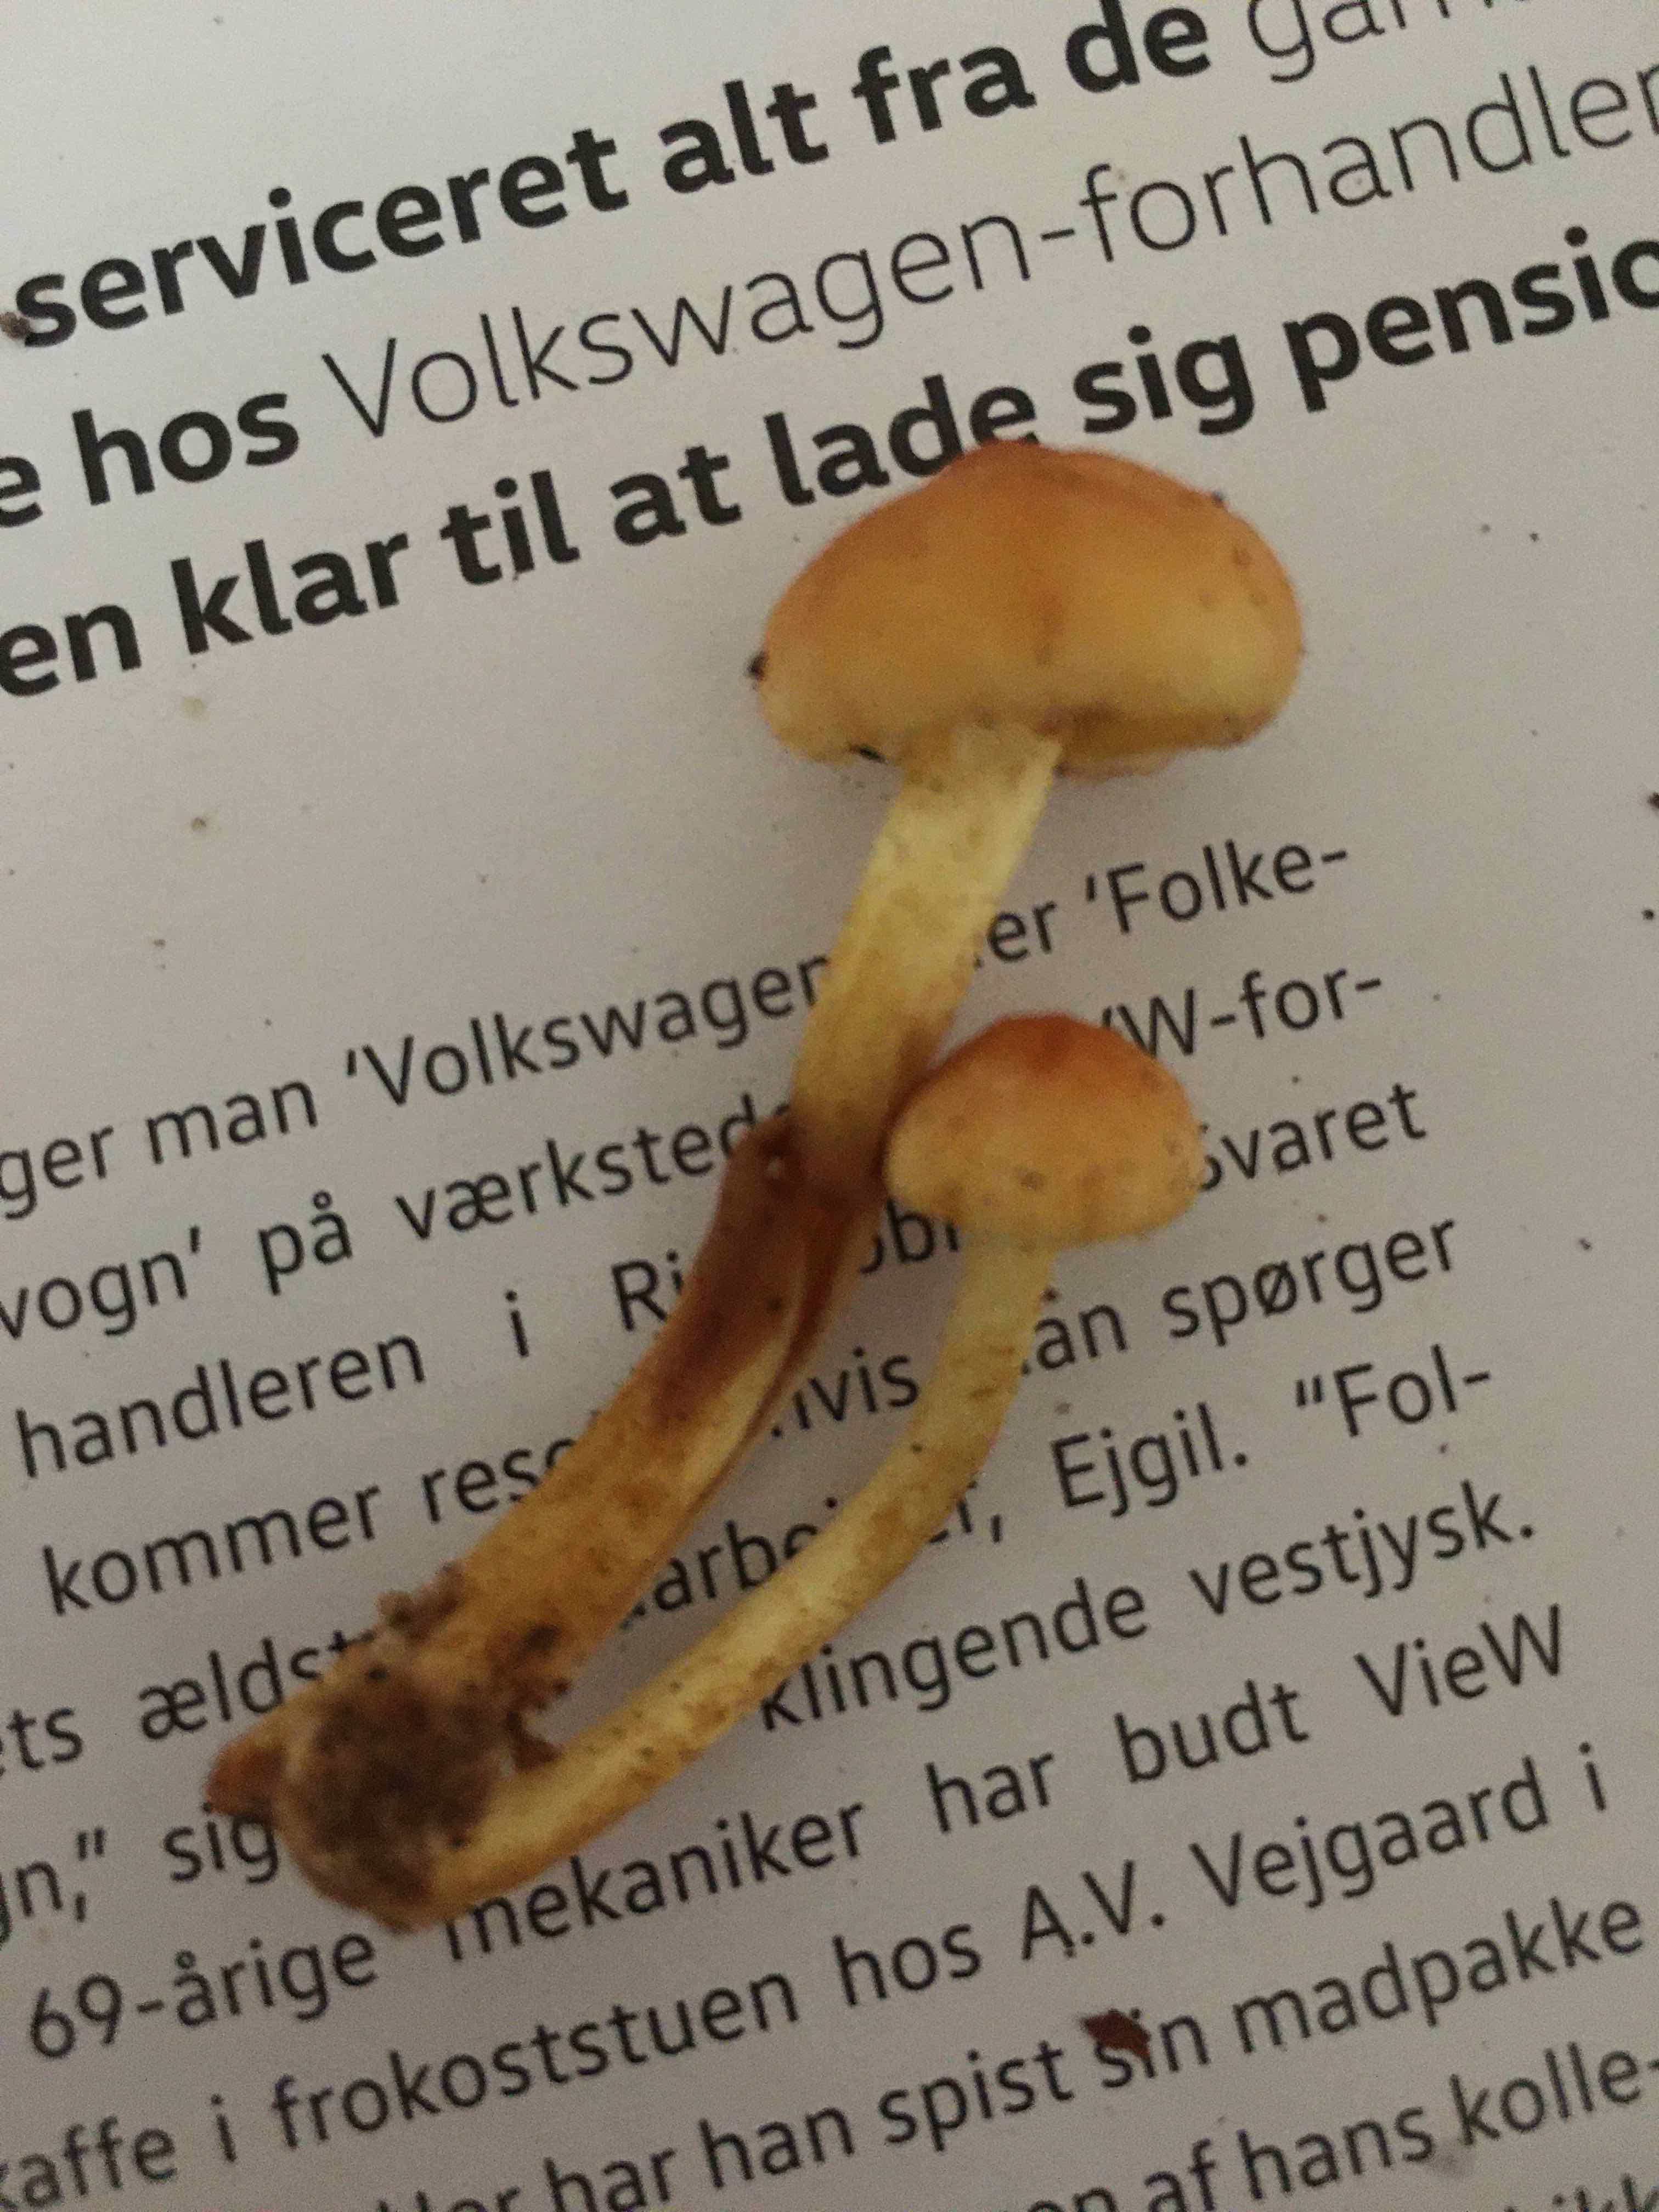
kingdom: Fungi
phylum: Basidiomycota
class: Agaricomycetes
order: Agaricales
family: Strophariaceae
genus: Hypholoma
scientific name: Hypholoma fasciculare
